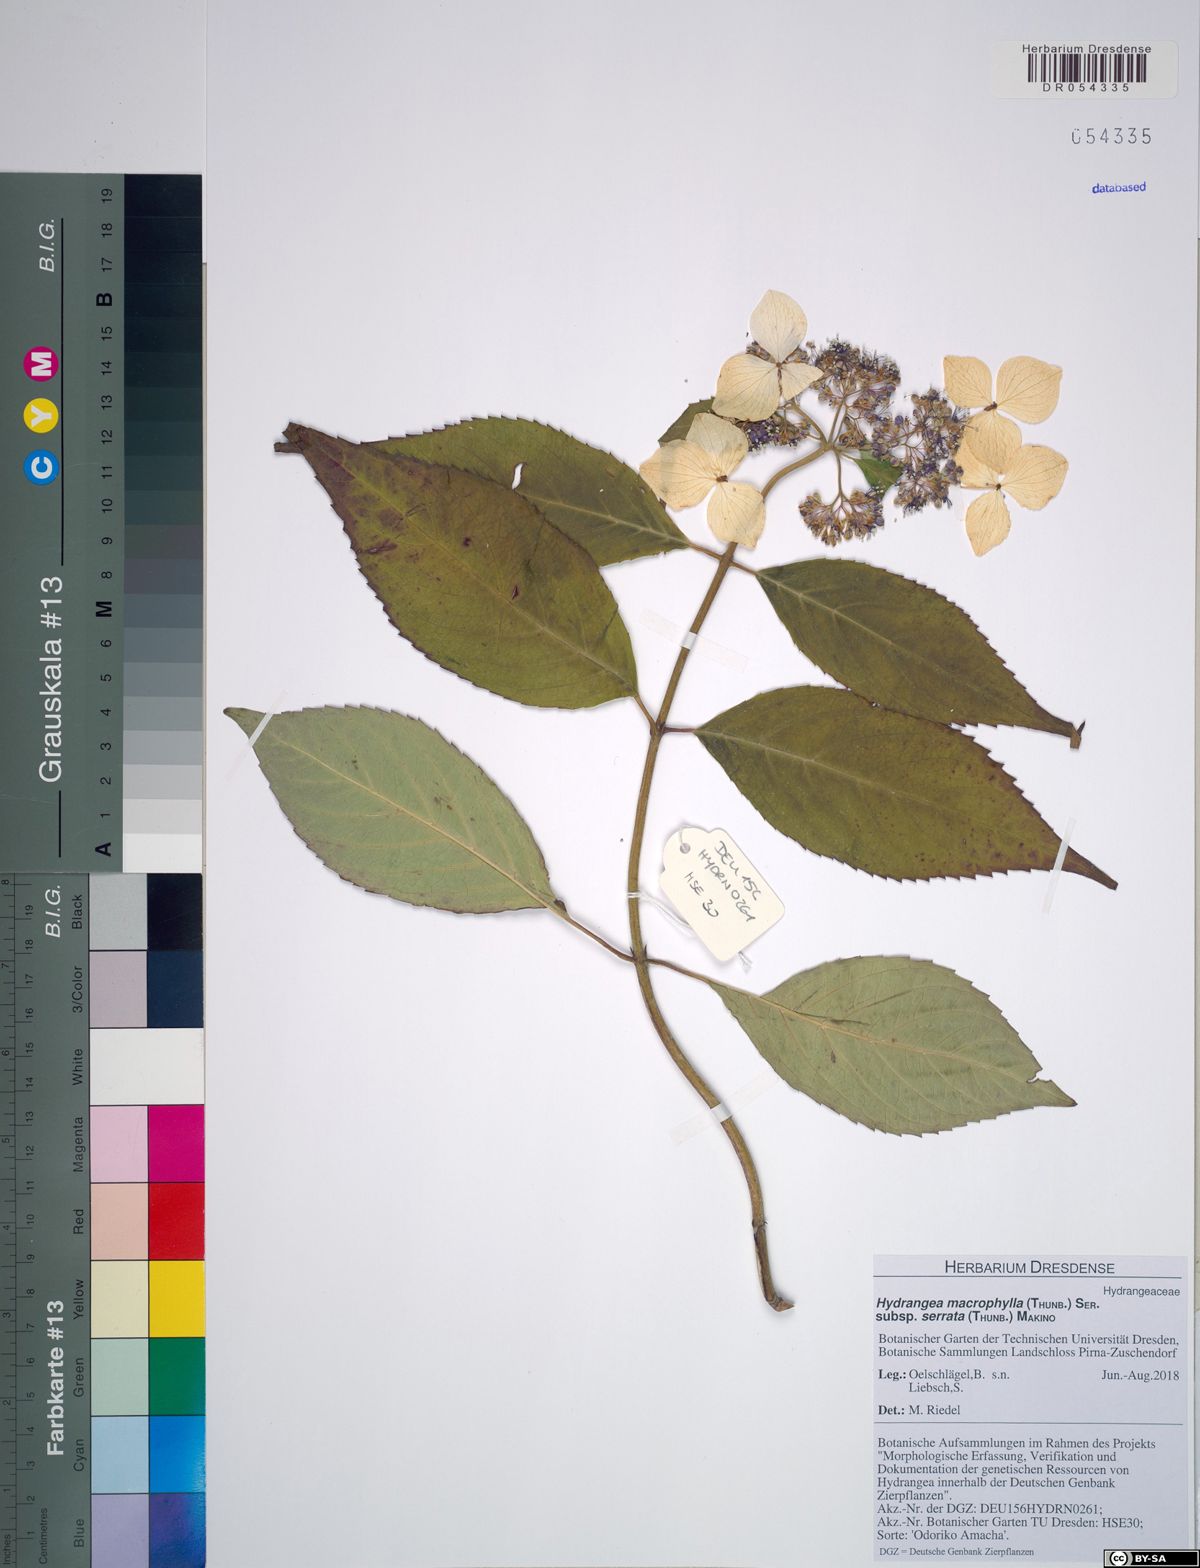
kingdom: Plantae
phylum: Tracheophyta
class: Magnoliopsida
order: Cornales
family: Hydrangeaceae
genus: Hydrangea
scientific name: Hydrangea serrata
